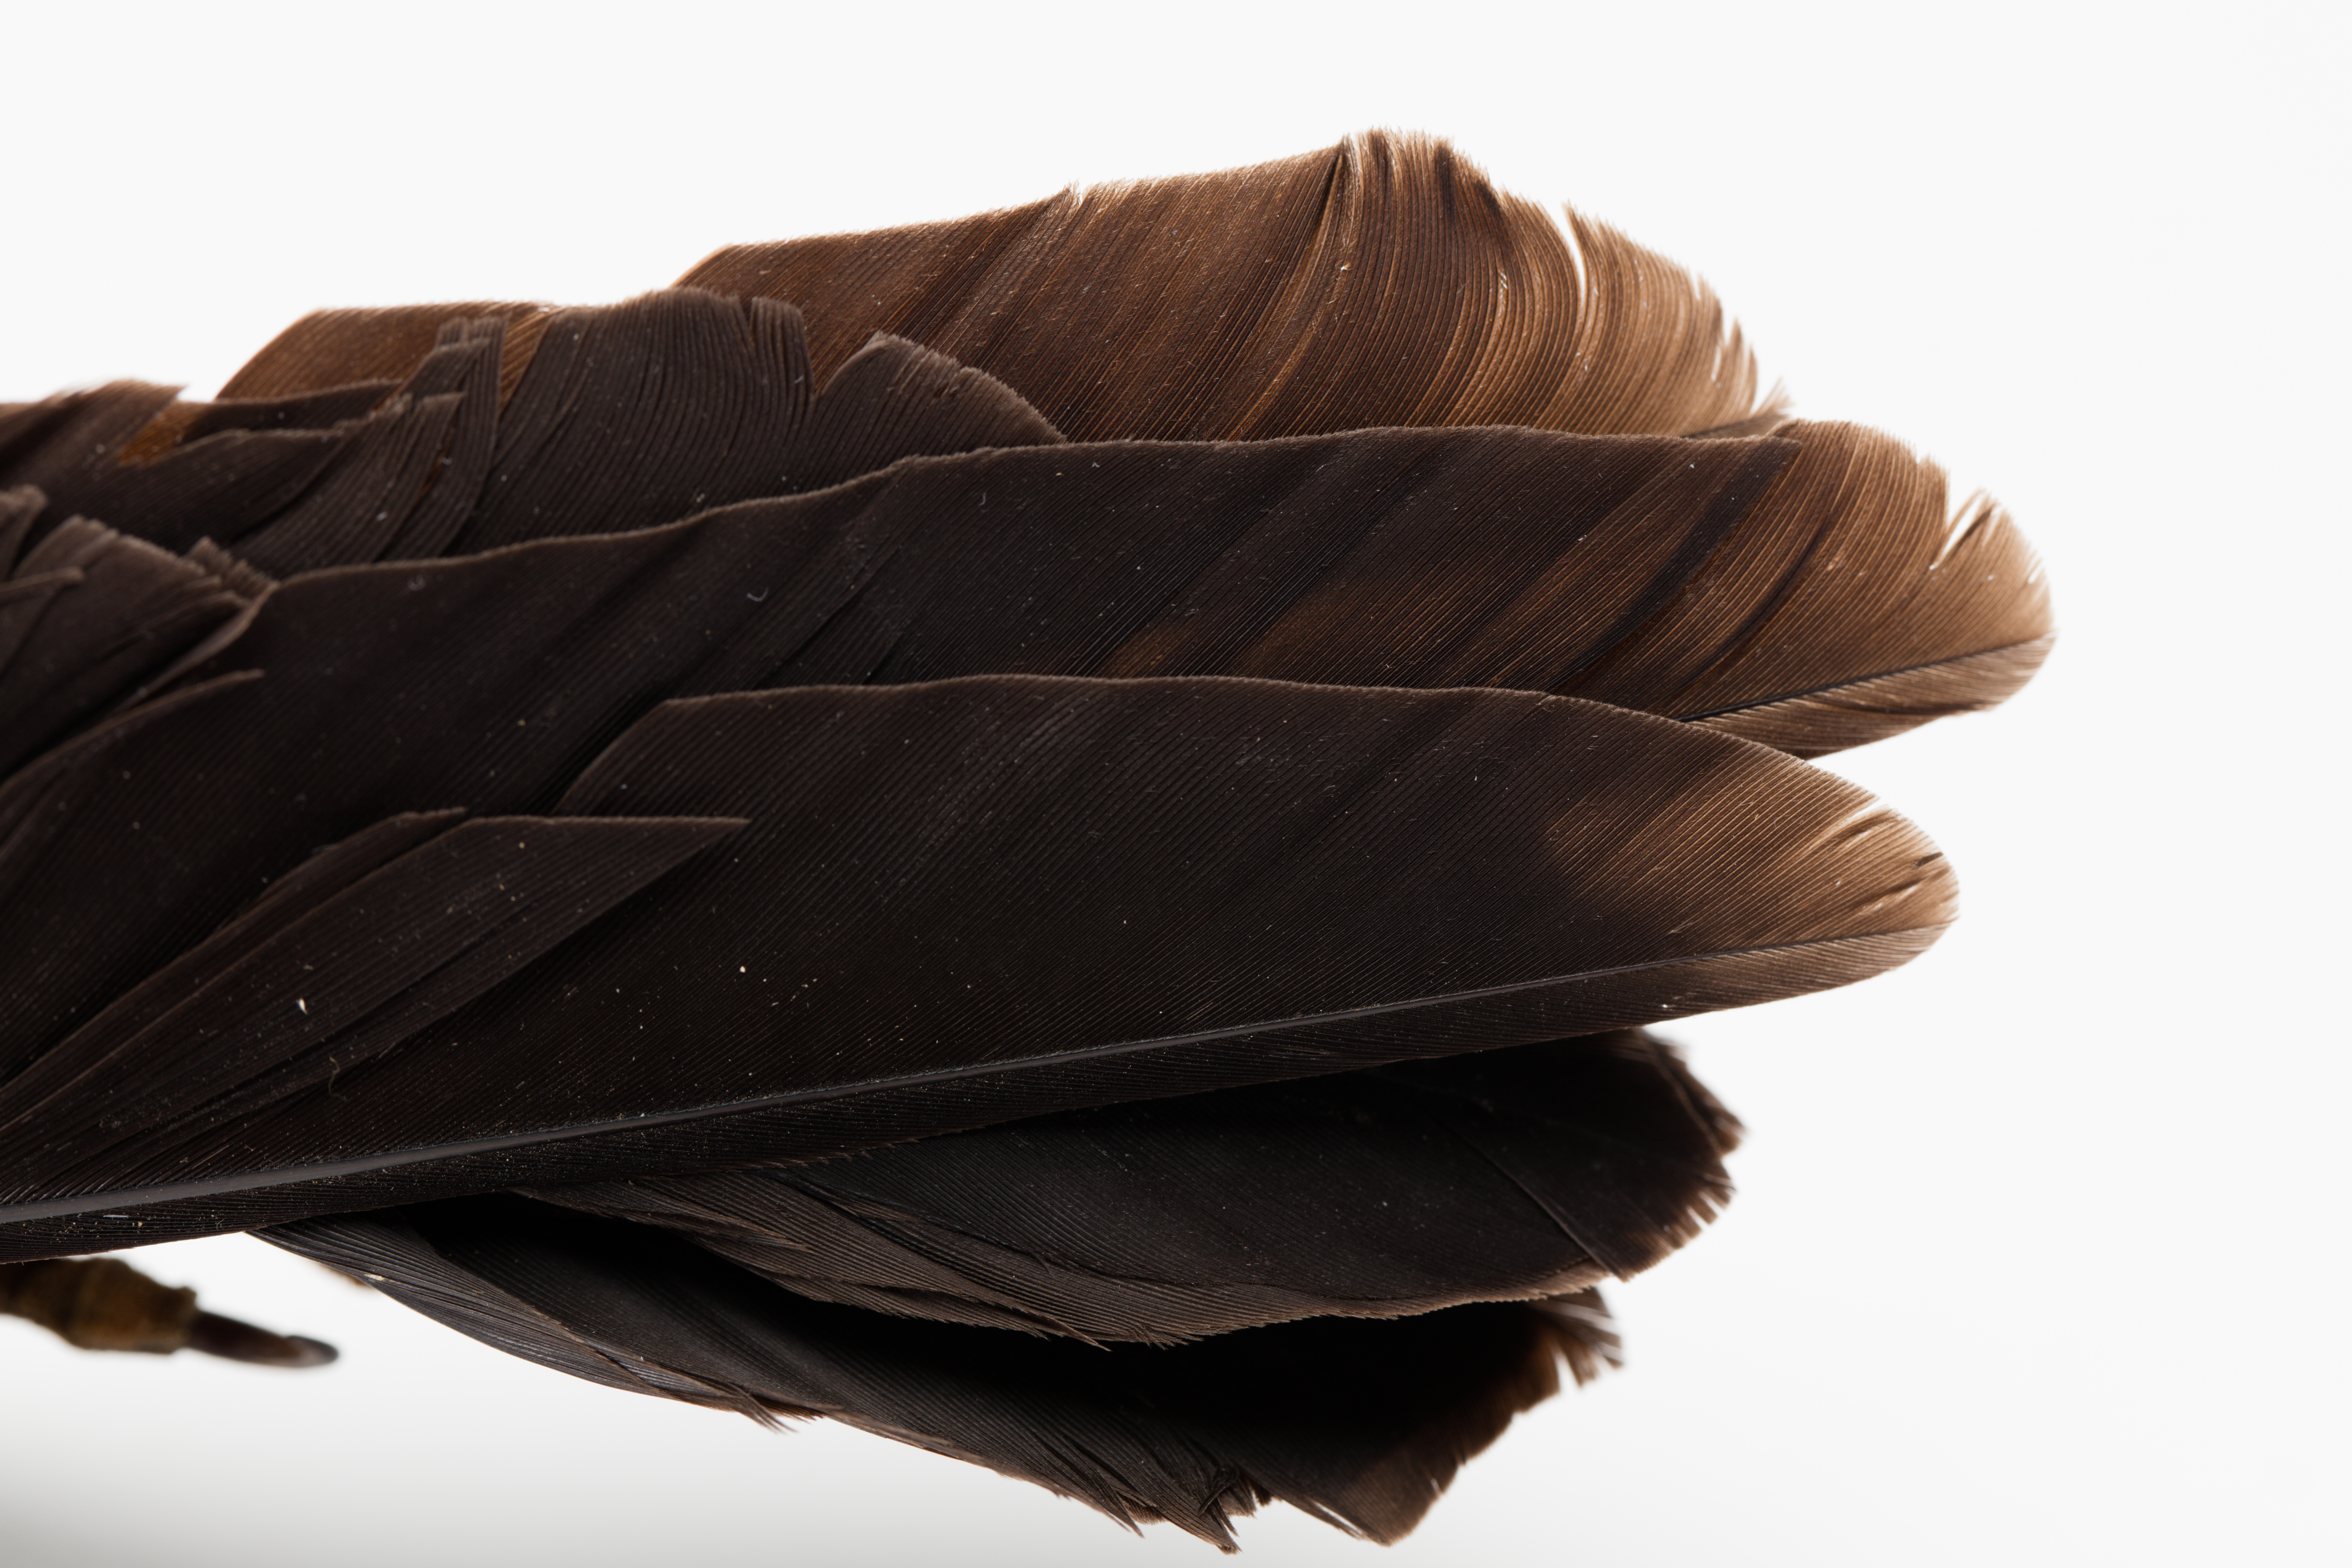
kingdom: Animalia
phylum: Chordata
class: Aves
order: Passeriformes
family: Cracticidae
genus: Gymnorhina
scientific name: Gymnorhina tibicen
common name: Australian magpie
